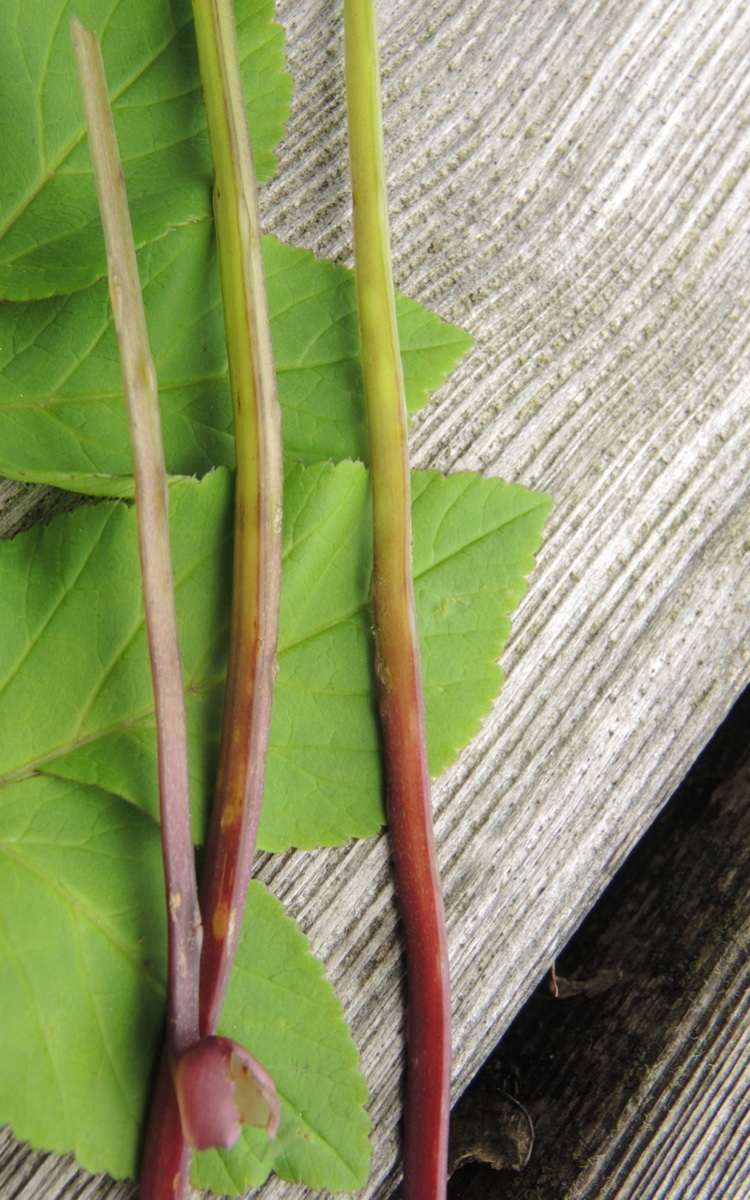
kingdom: Fungi
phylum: Ascomycota
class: Taphrinomycetes
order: Taphrinales
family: Taphrinaceae
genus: Protomyces
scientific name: Protomyces macrosporus
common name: skvalderkål-vablesæk
